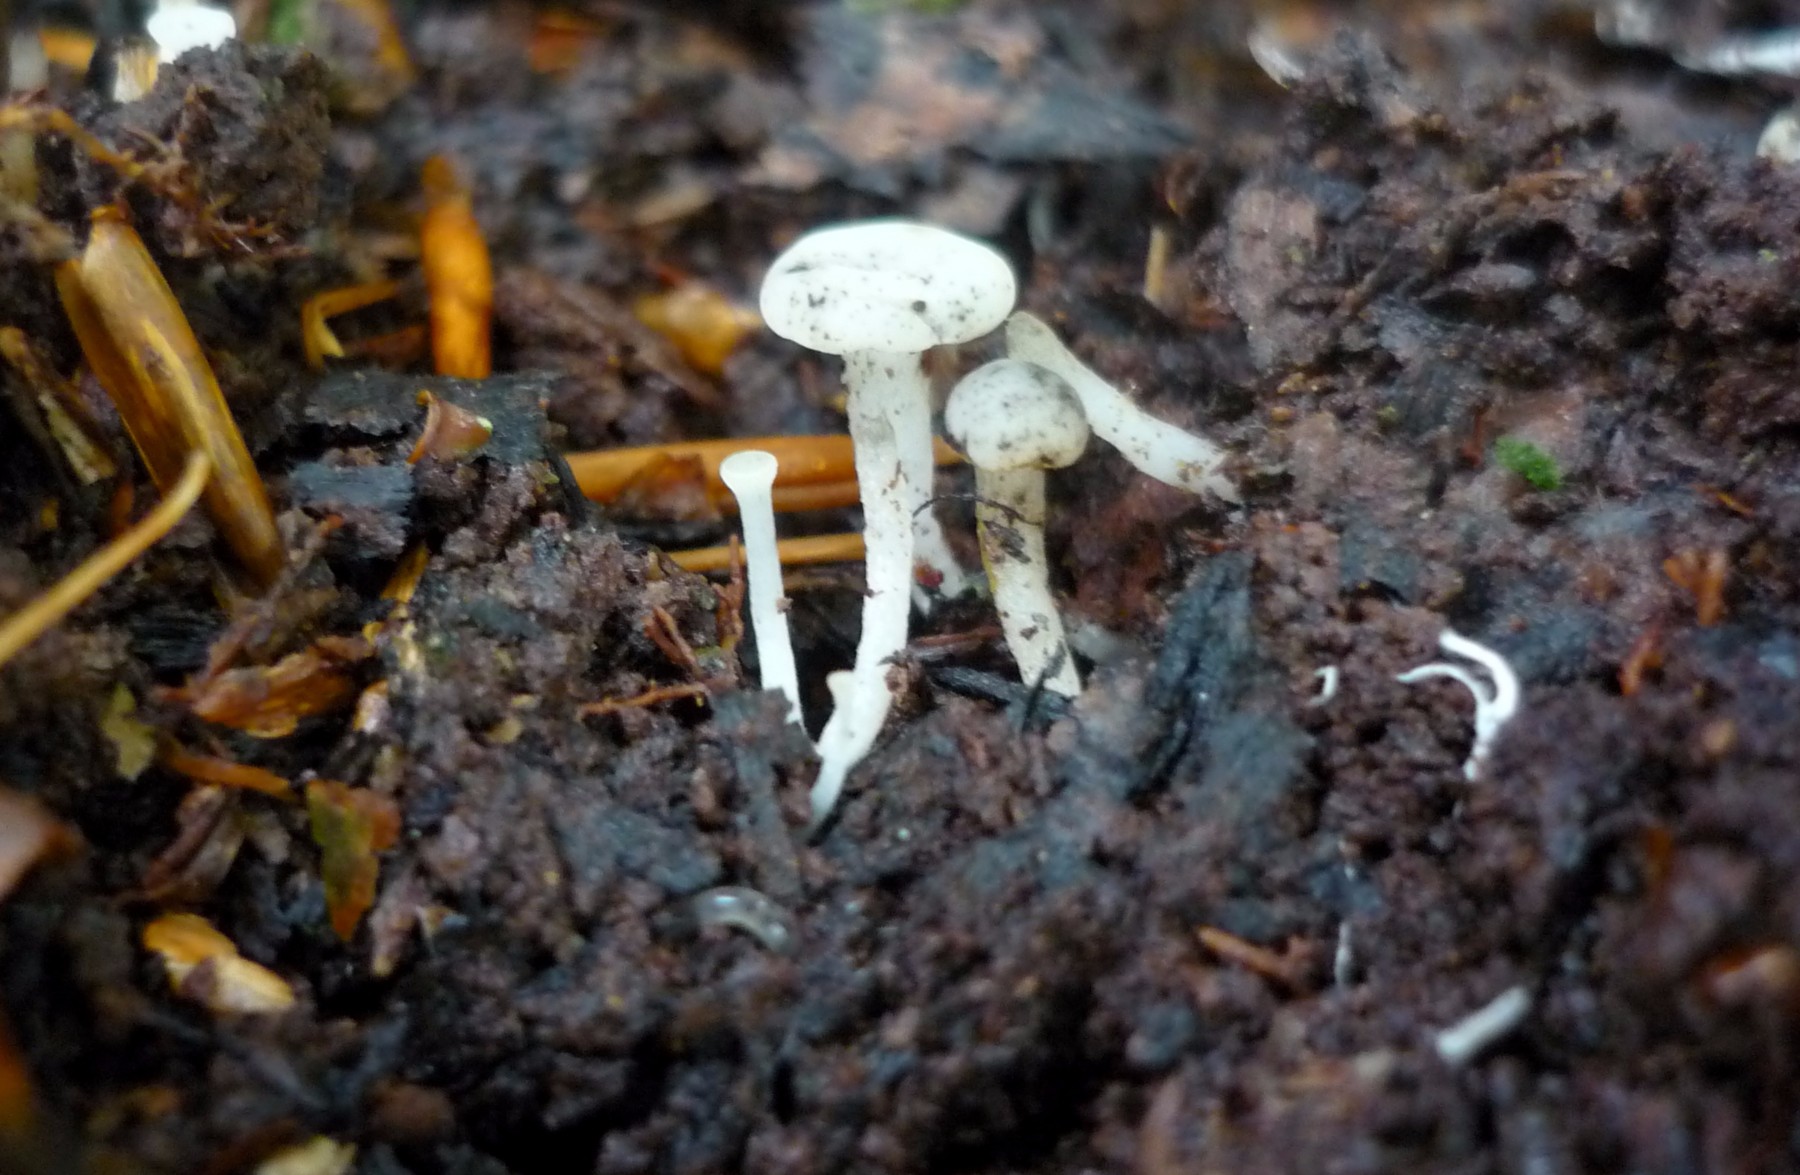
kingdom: Fungi
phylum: Ascomycota
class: Leotiomycetes
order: Helotiales
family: Tricladiaceae
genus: Cudoniella
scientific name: Cudoniella acicularis
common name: ege-dyndskive
